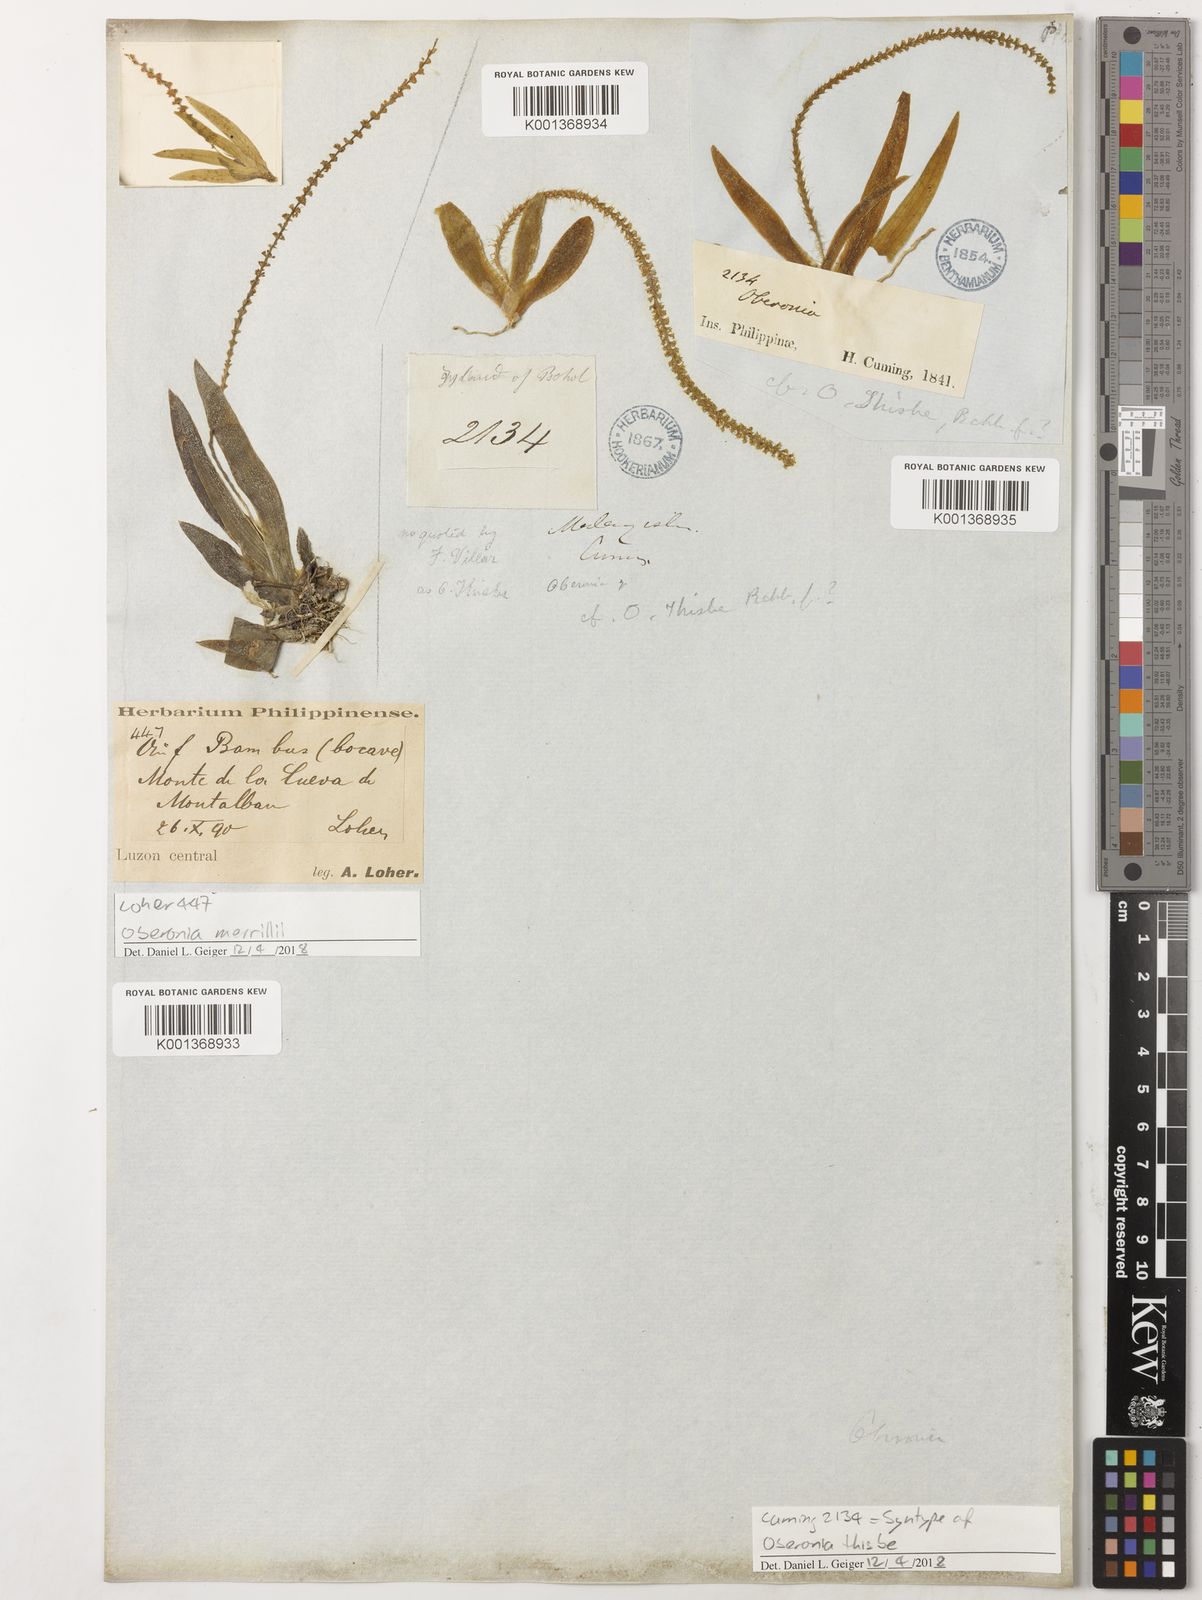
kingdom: Plantae
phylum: Tracheophyta
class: Liliopsida
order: Asparagales
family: Orchidaceae
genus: Oberonia
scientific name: Oberonia merrillii
